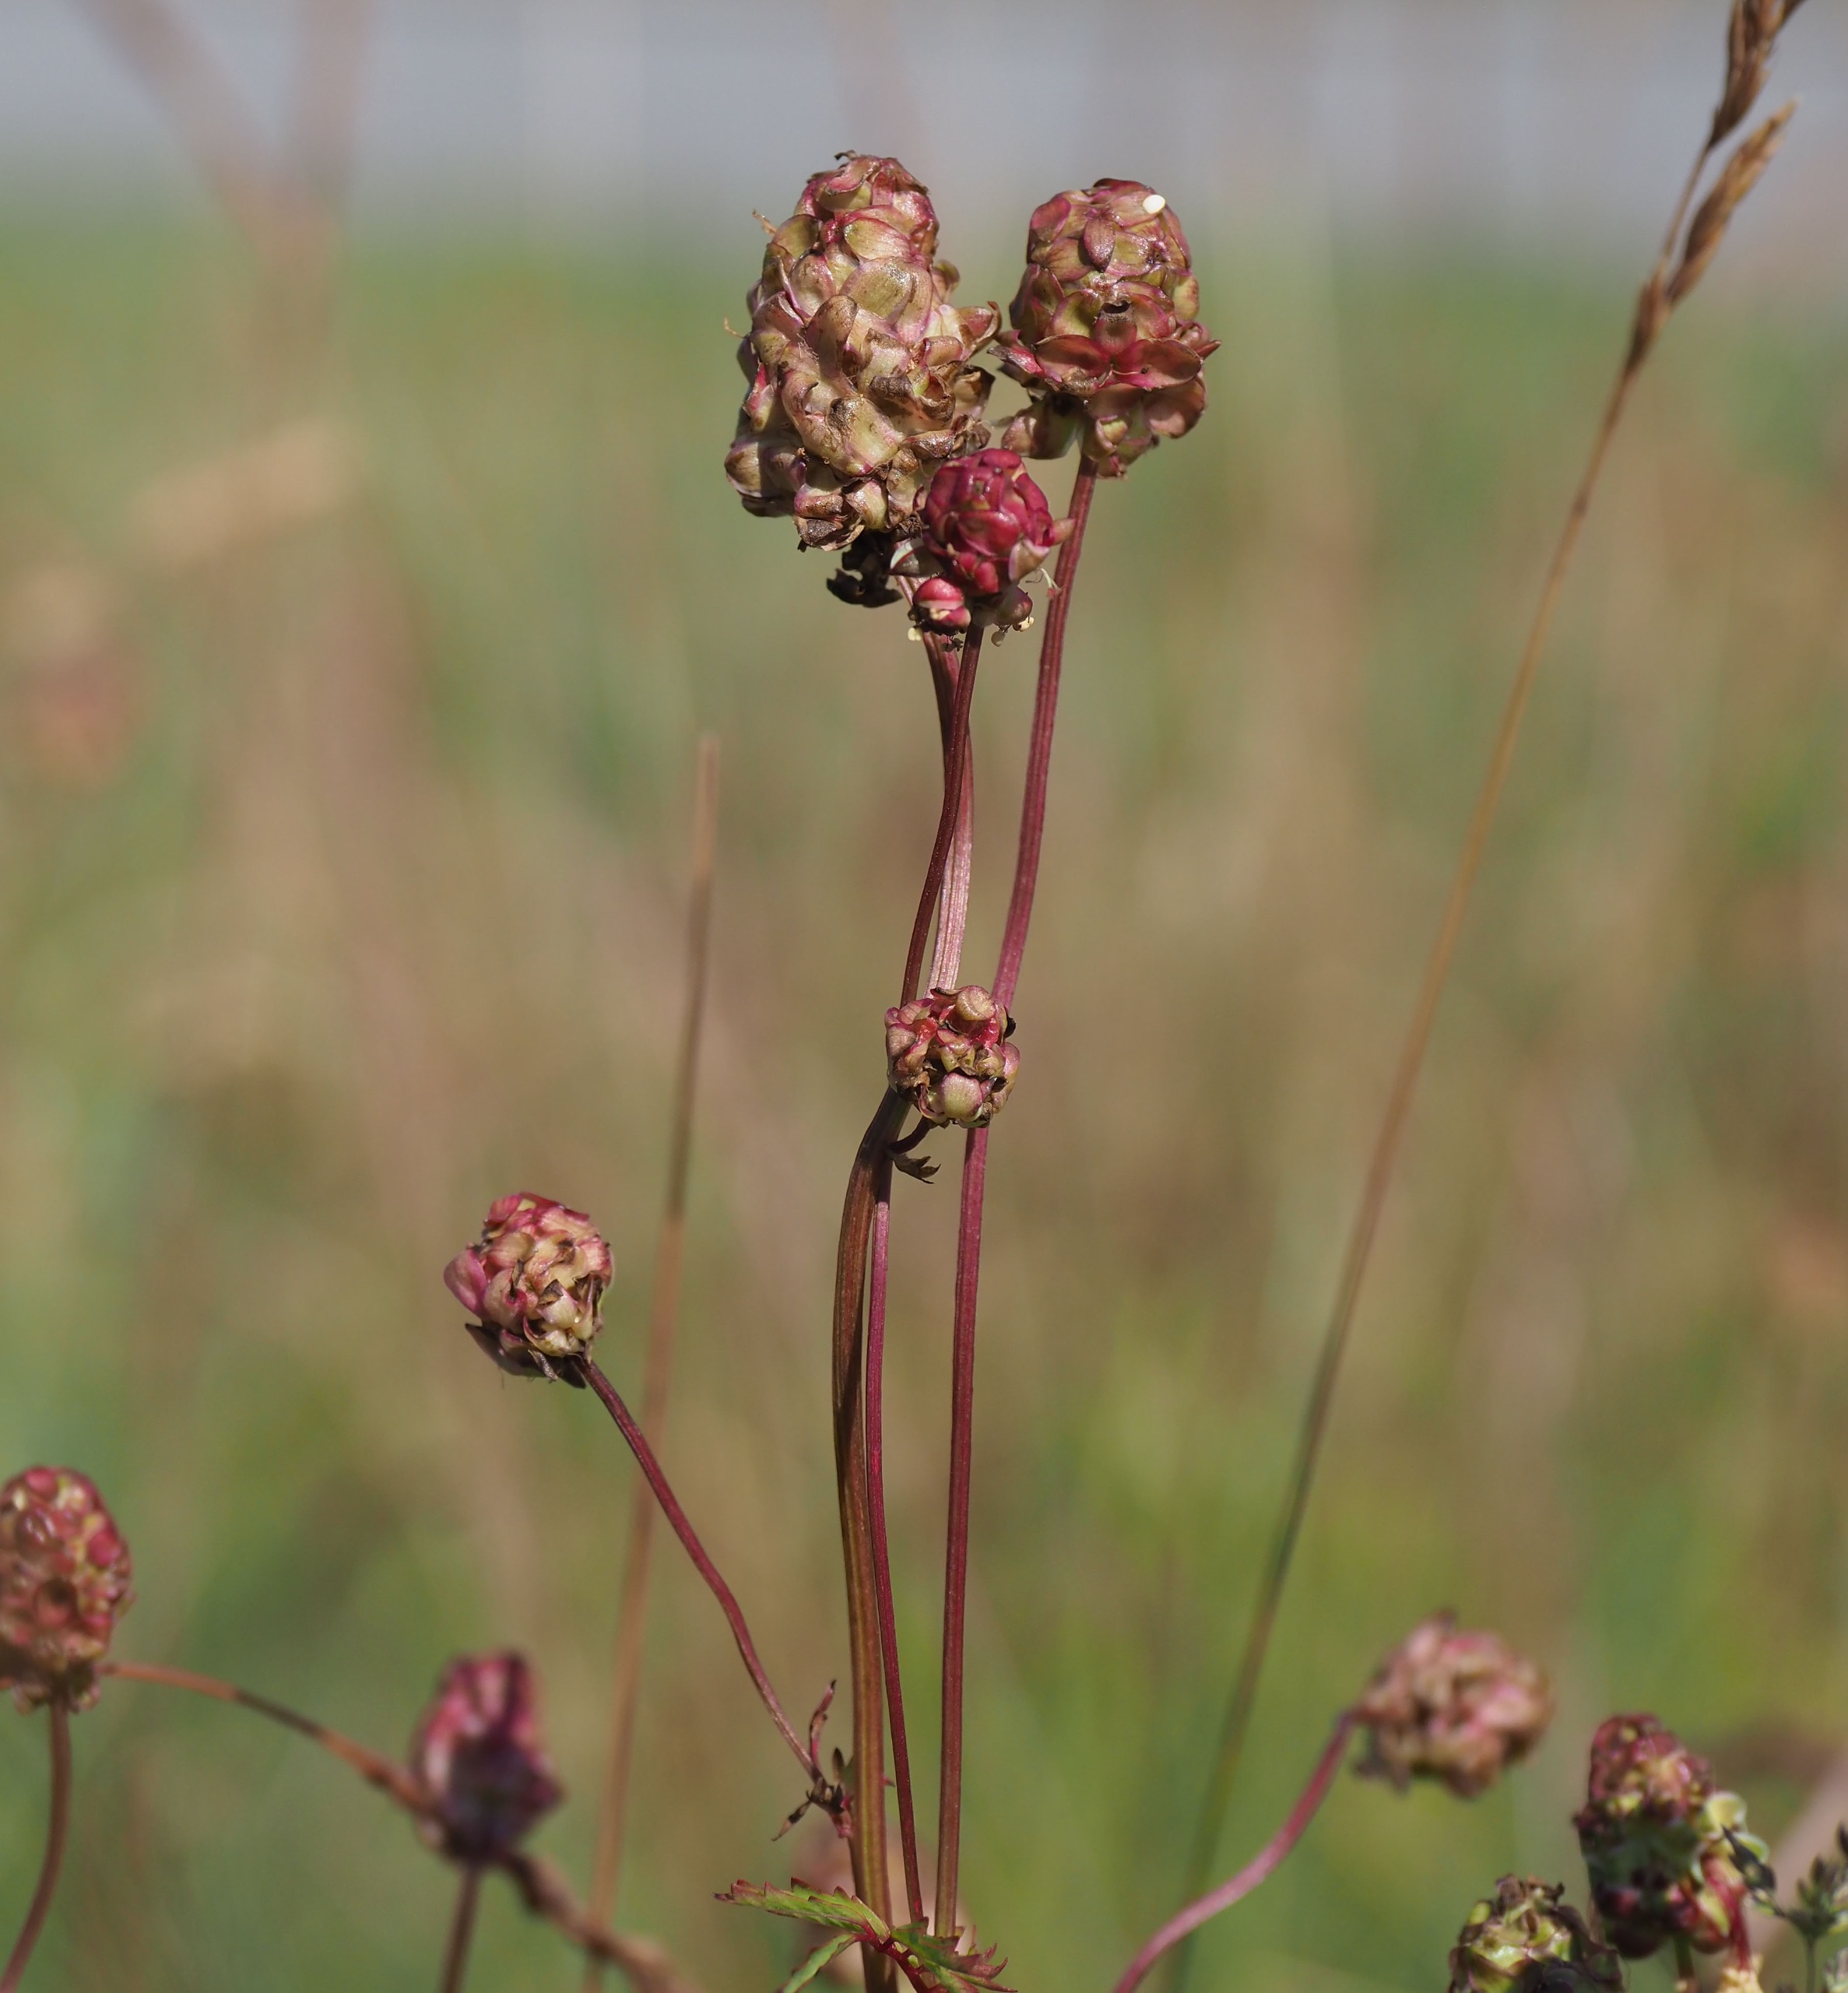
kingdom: Plantae
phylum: Tracheophyta
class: Magnoliopsida
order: Rosales
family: Rosaceae
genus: Poterium
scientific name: Poterium sanguisorba
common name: Bibernelle
